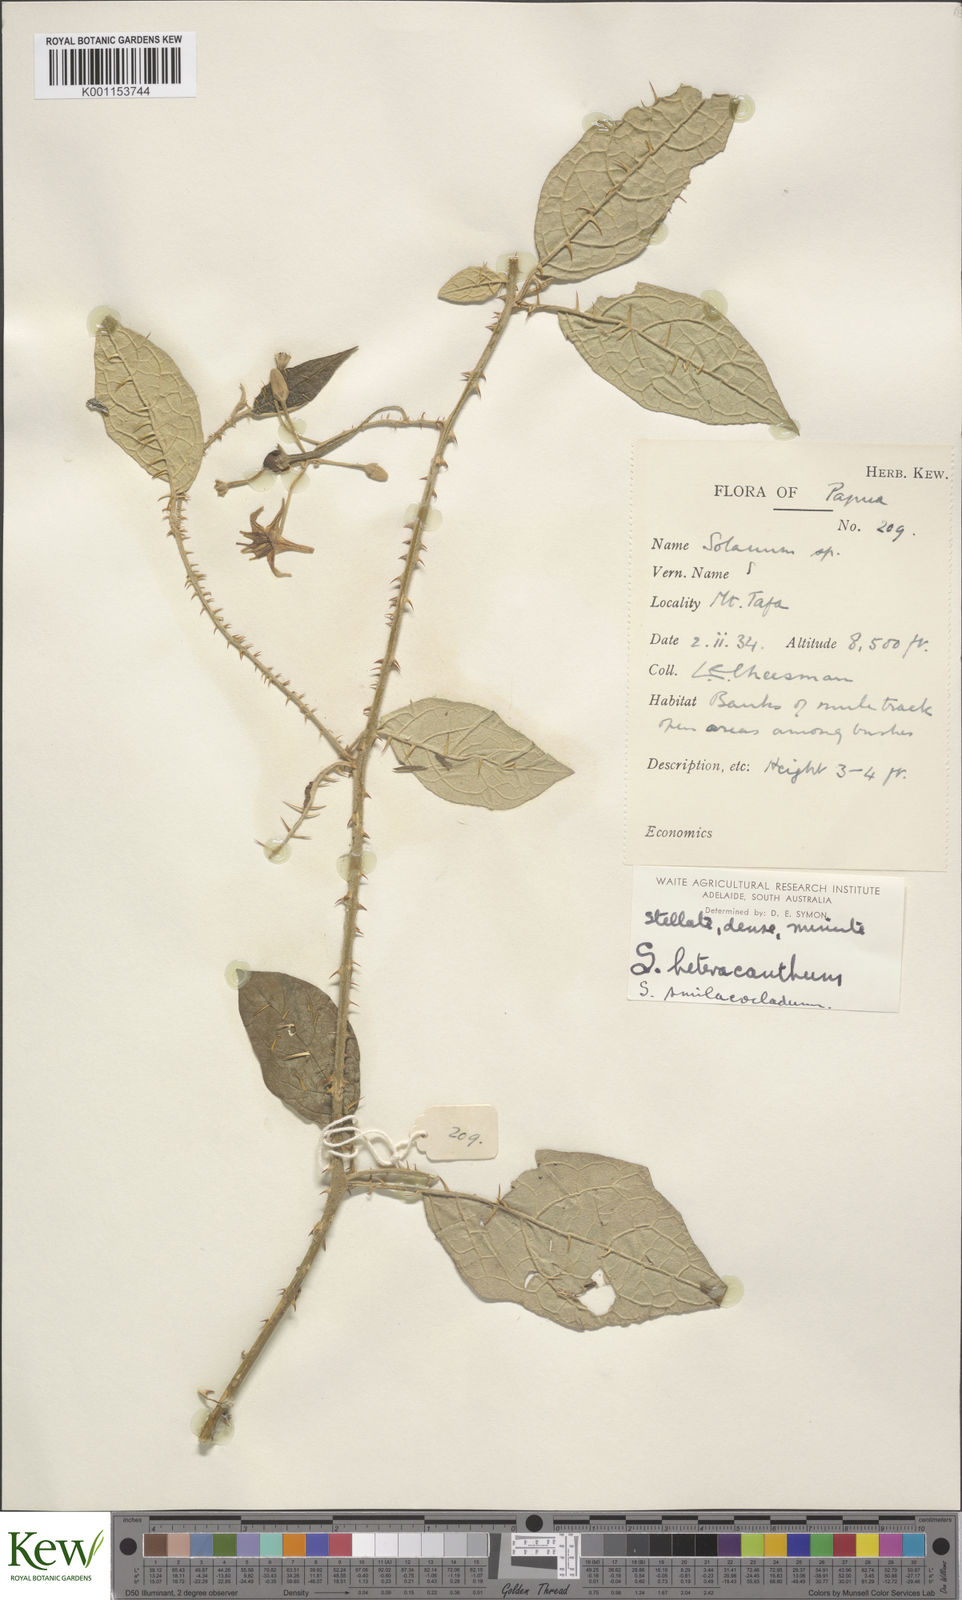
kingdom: Plantae
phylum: Tracheophyta
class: Magnoliopsida
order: Solanales
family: Solanaceae
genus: Solanum
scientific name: Solanum galactites
